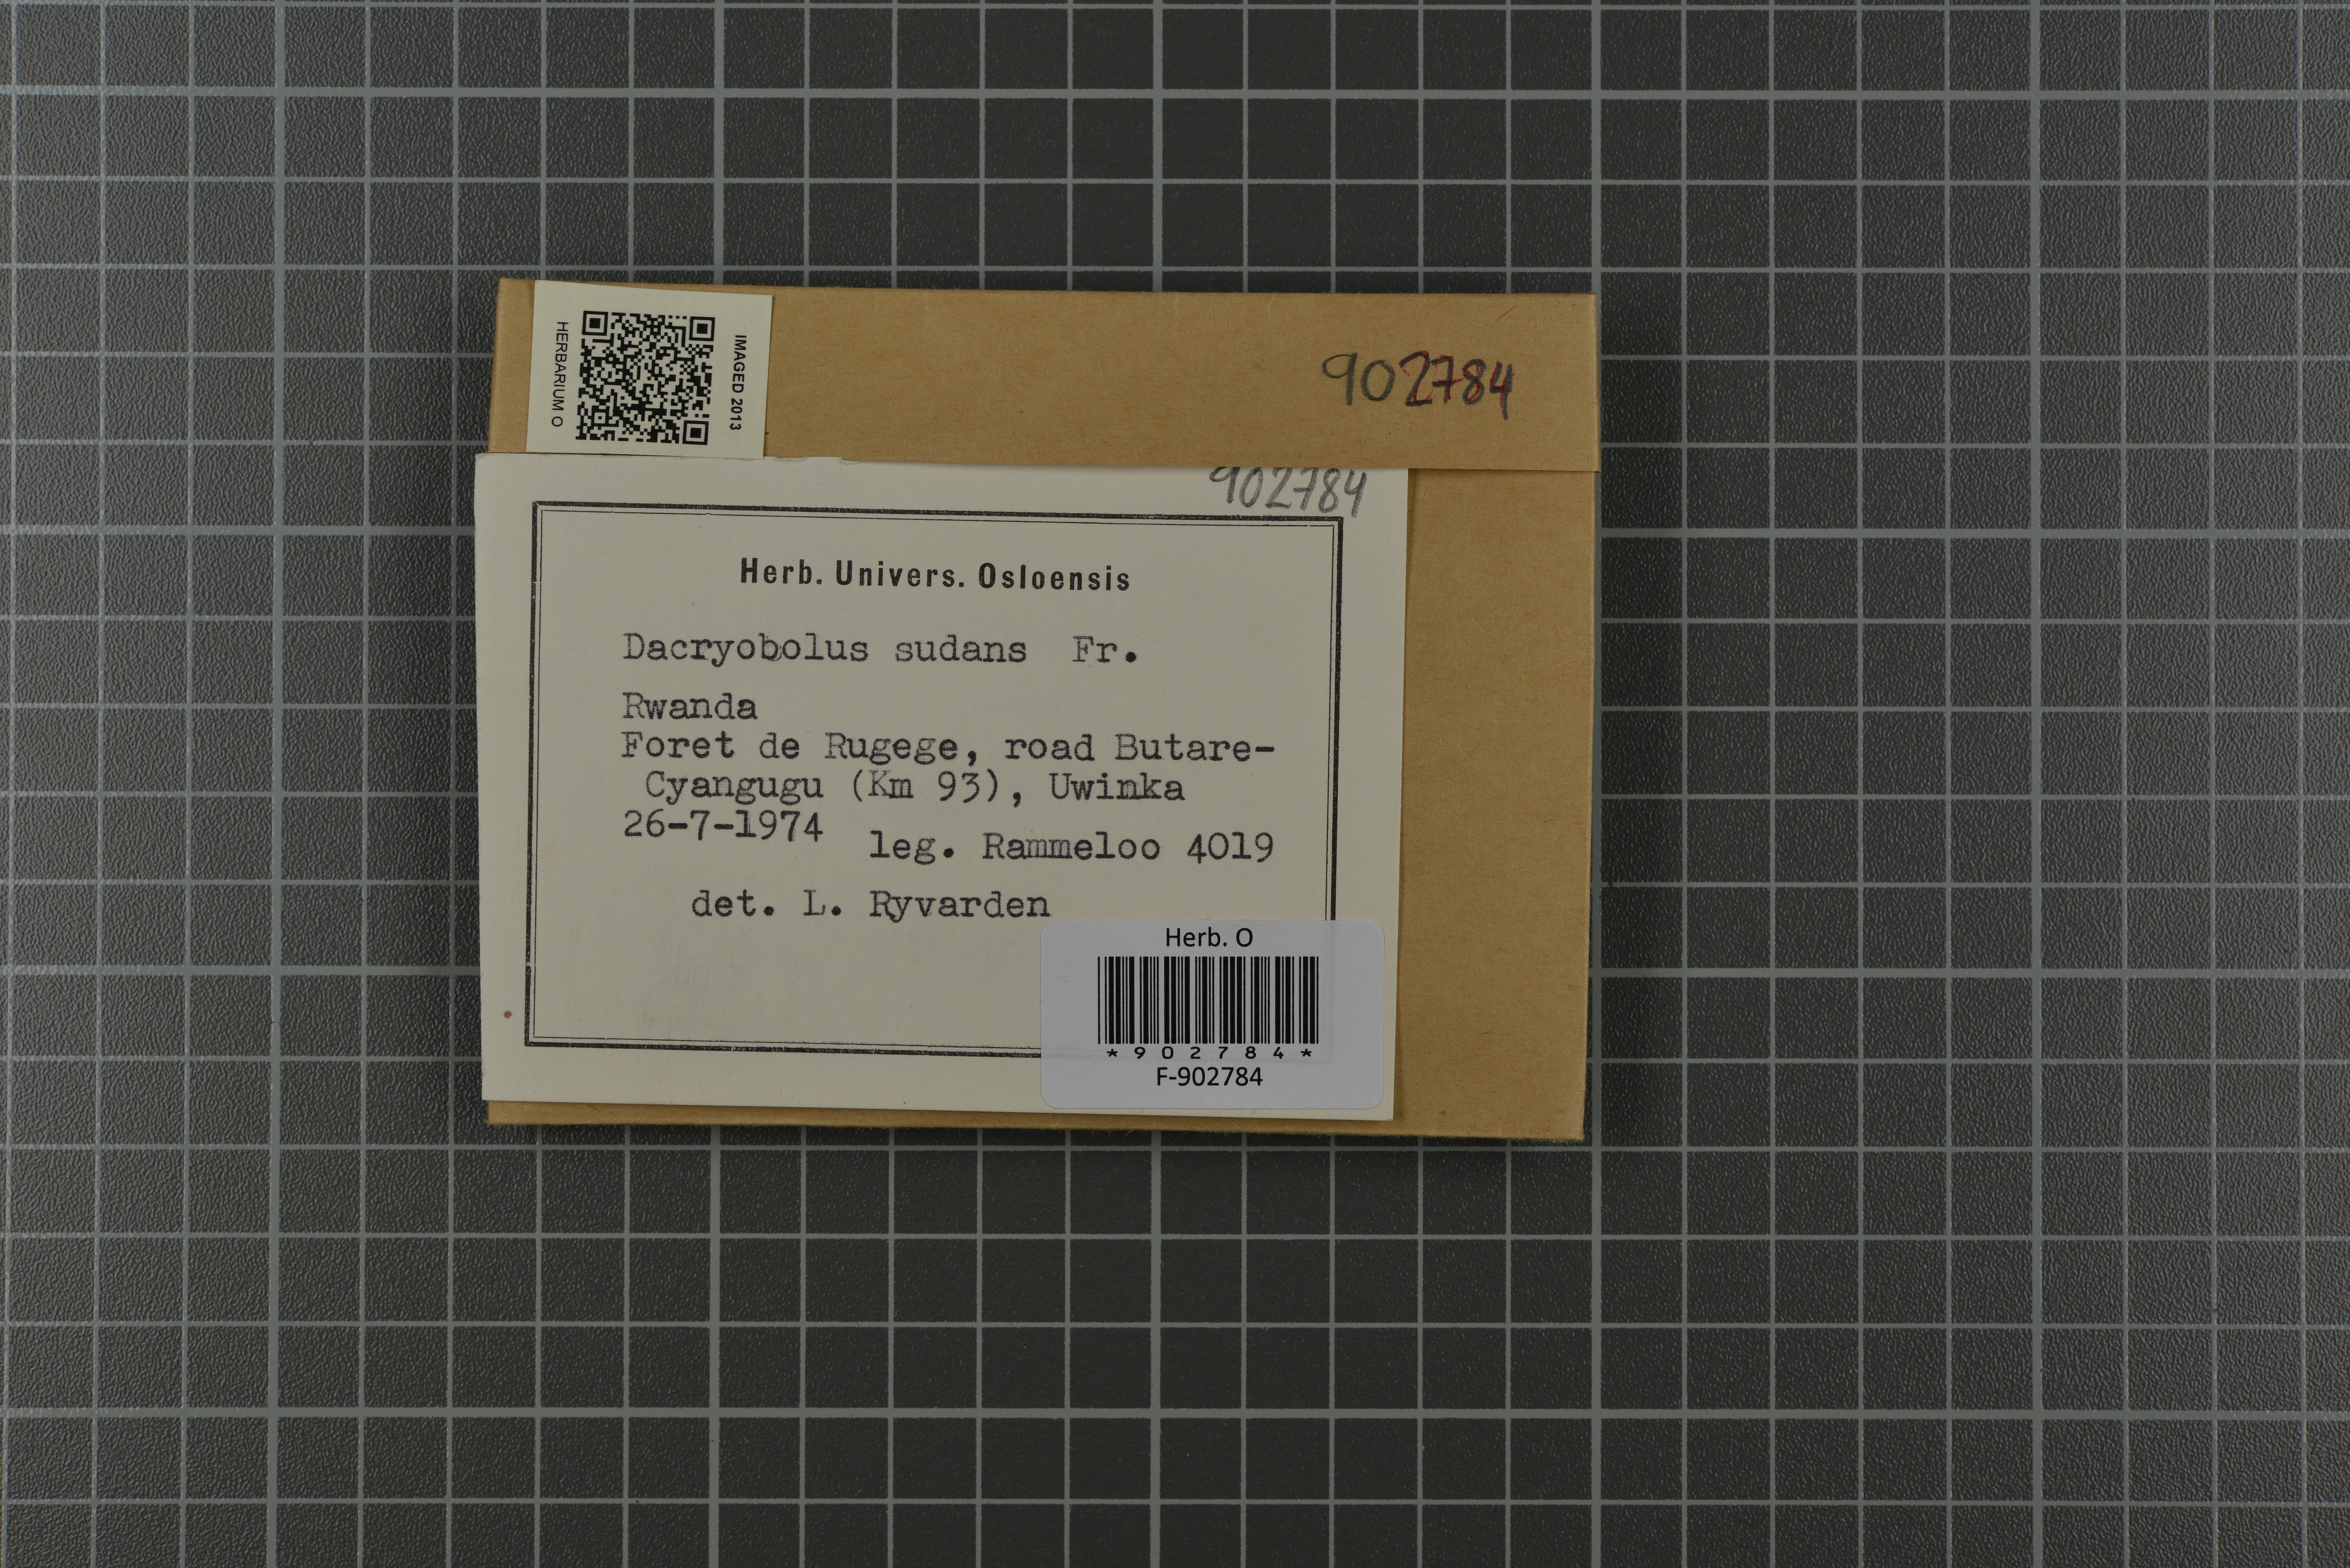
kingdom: Fungi
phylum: Basidiomycota
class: Agaricomycetes
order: Polyporales
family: Dacryobolaceae
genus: Dacryobolus
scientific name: Dacryobolus sudans
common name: Weeping toothcrust
